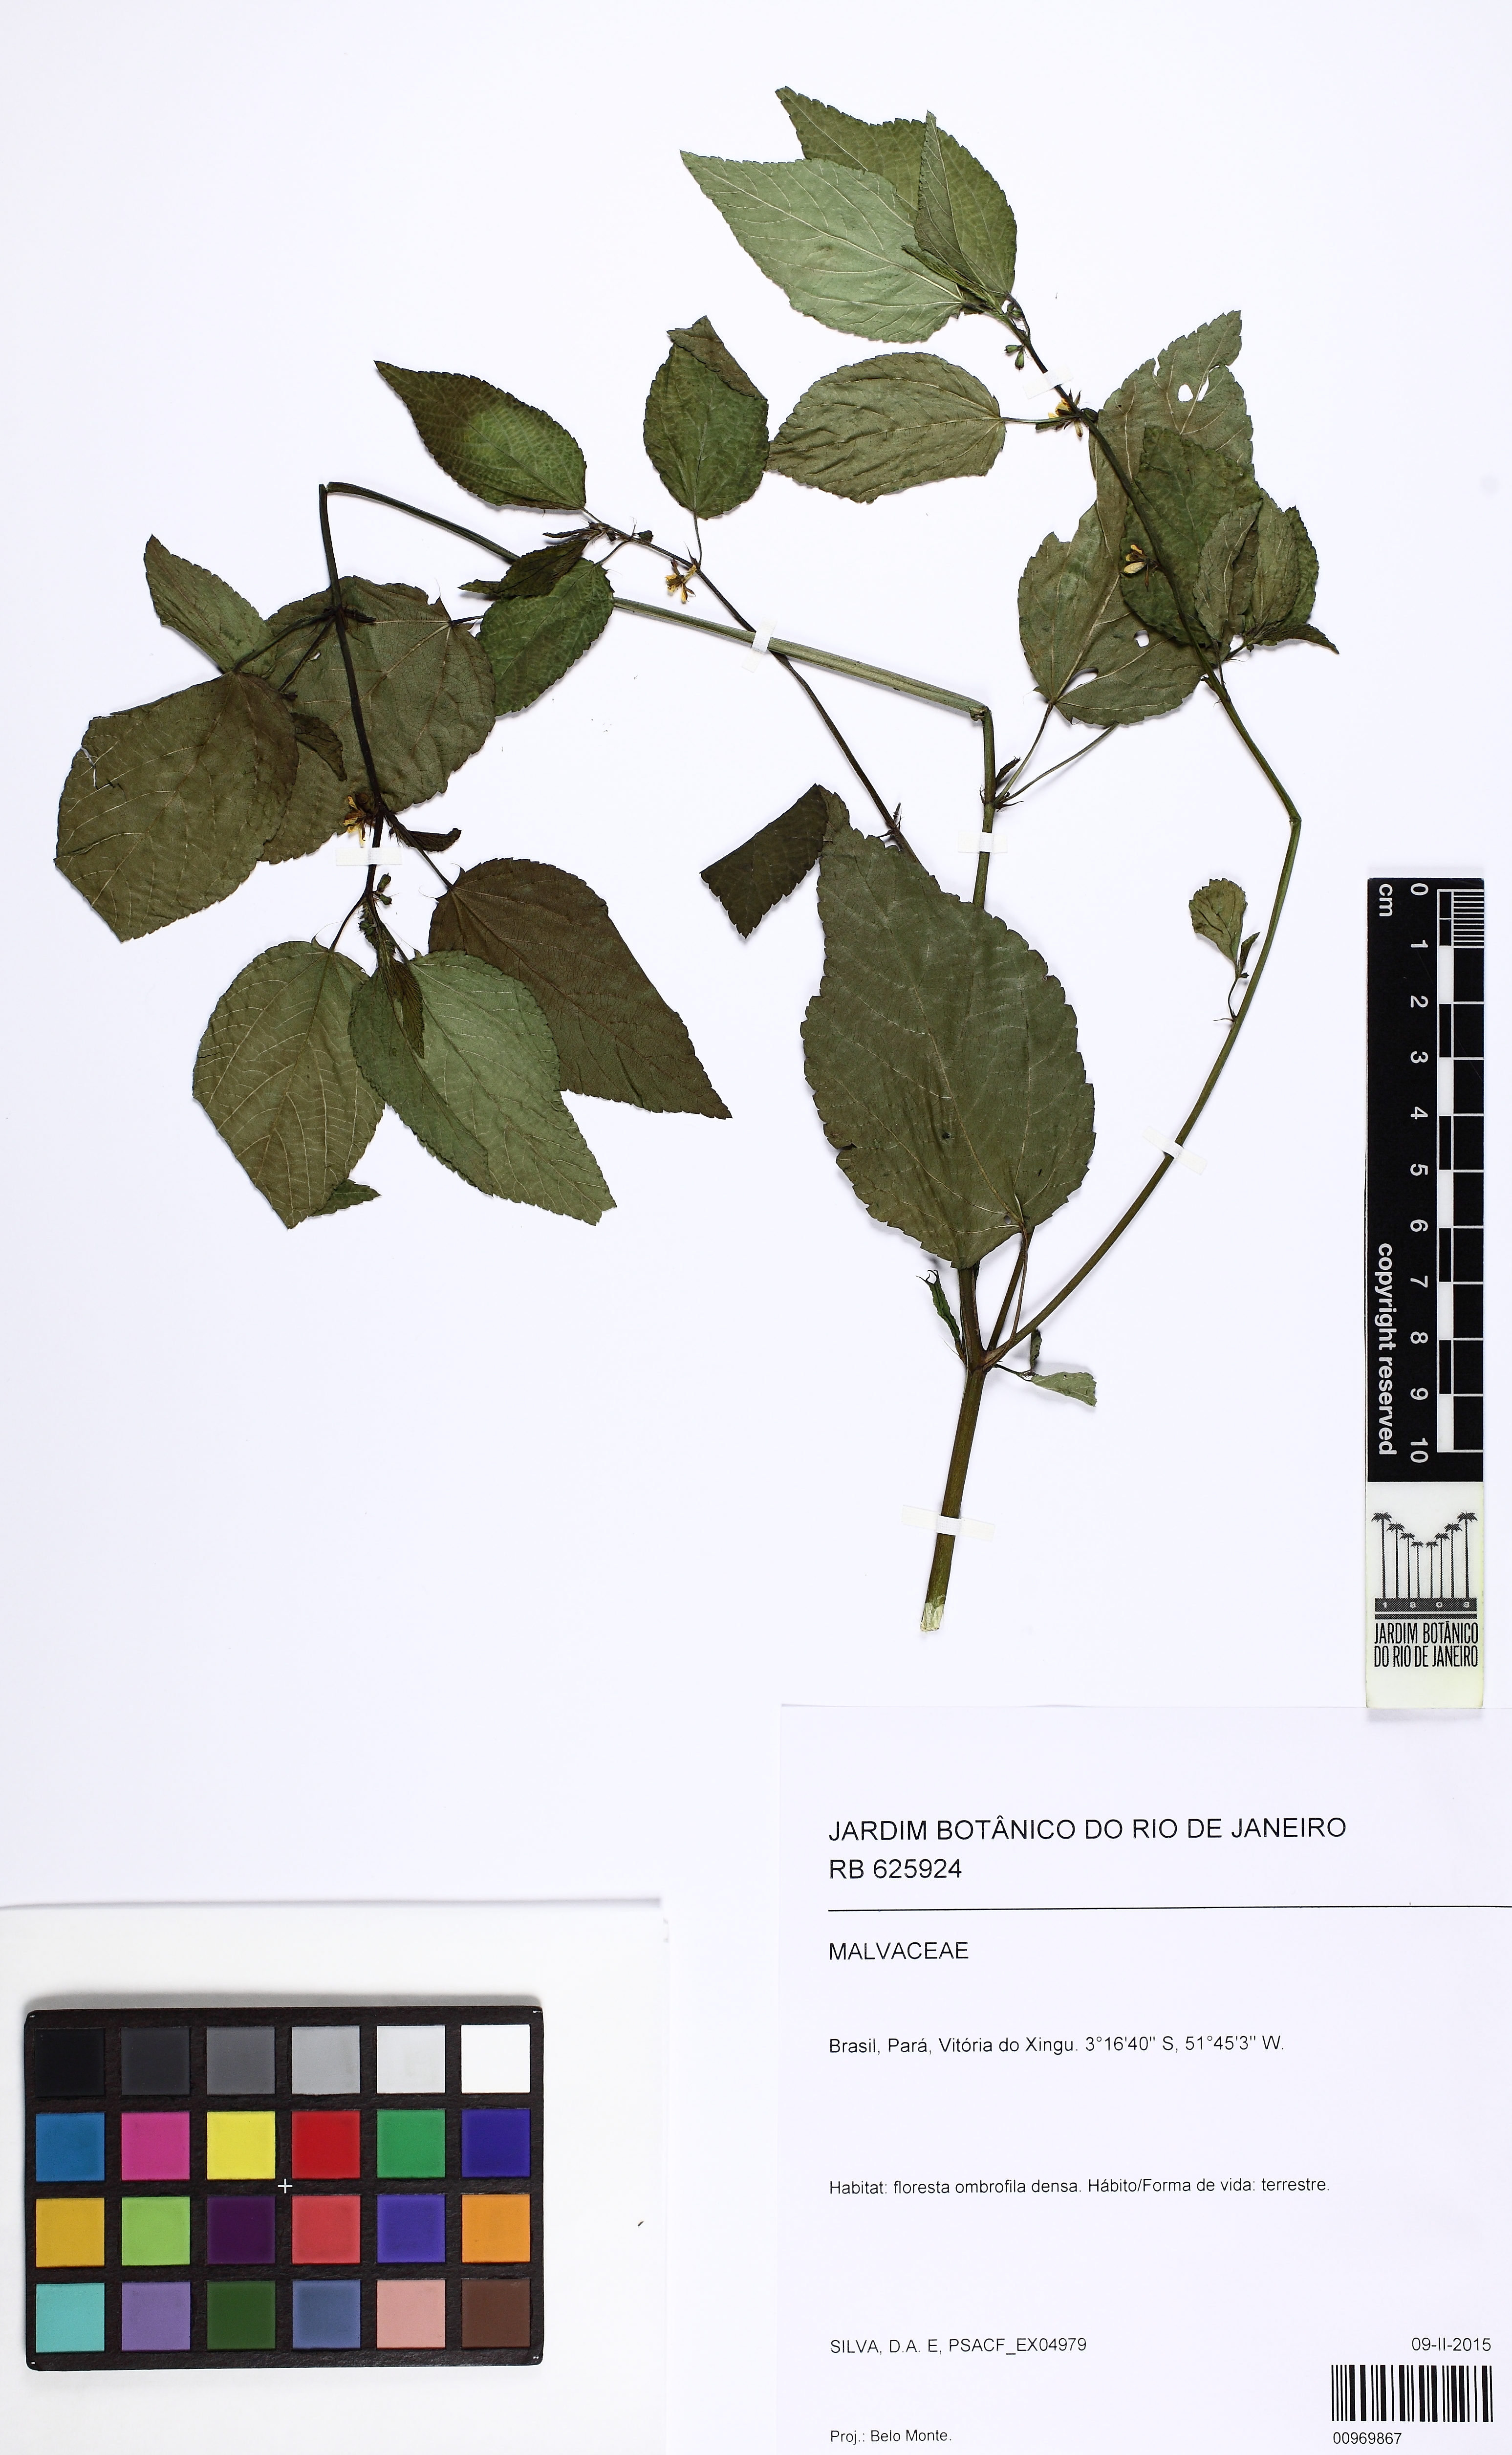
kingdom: Plantae
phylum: Tracheophyta
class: Magnoliopsida
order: Malvales
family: Malvaceae
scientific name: Malvaceae
